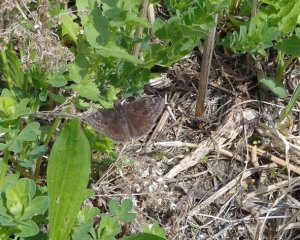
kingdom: Animalia
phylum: Arthropoda
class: Insecta
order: Lepidoptera
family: Hesperiidae
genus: Gesta
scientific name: Gesta
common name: Juvenal's Duskywing
